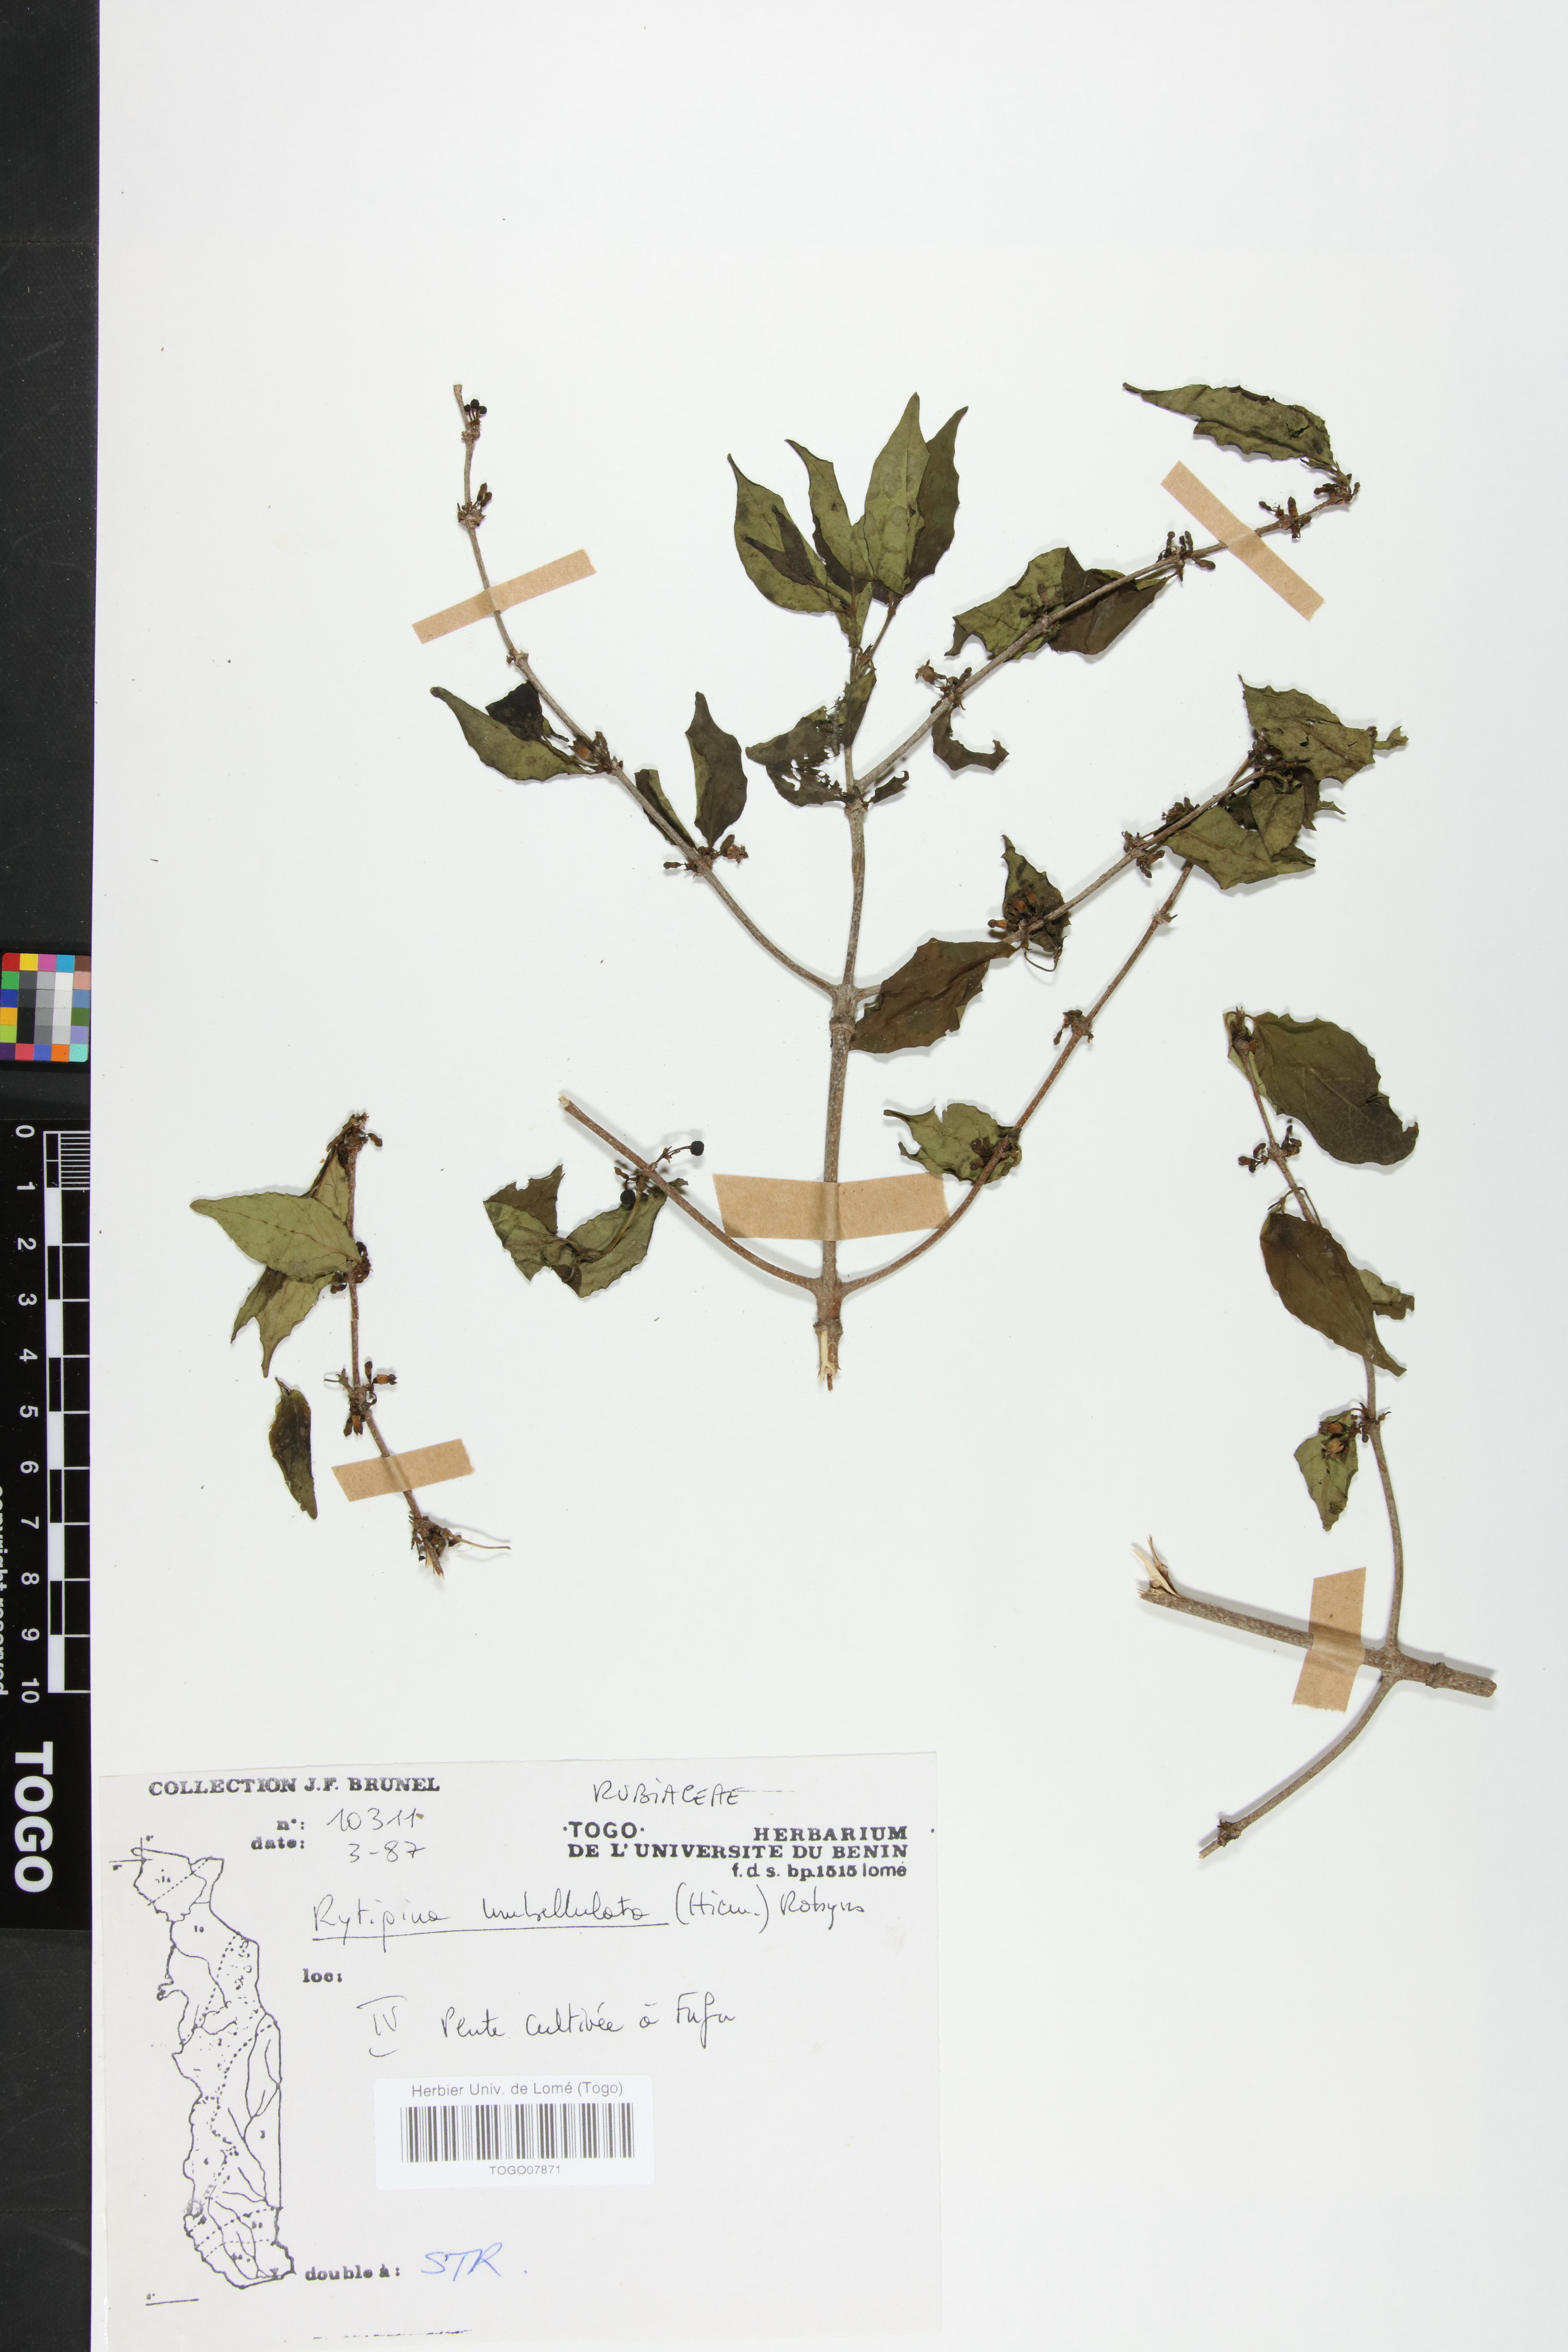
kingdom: Plantae
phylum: Tracheophyta
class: Magnoliopsida
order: Gentianales
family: Rubiaceae
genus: Rytigynia
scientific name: Rytigynia umbellulata
